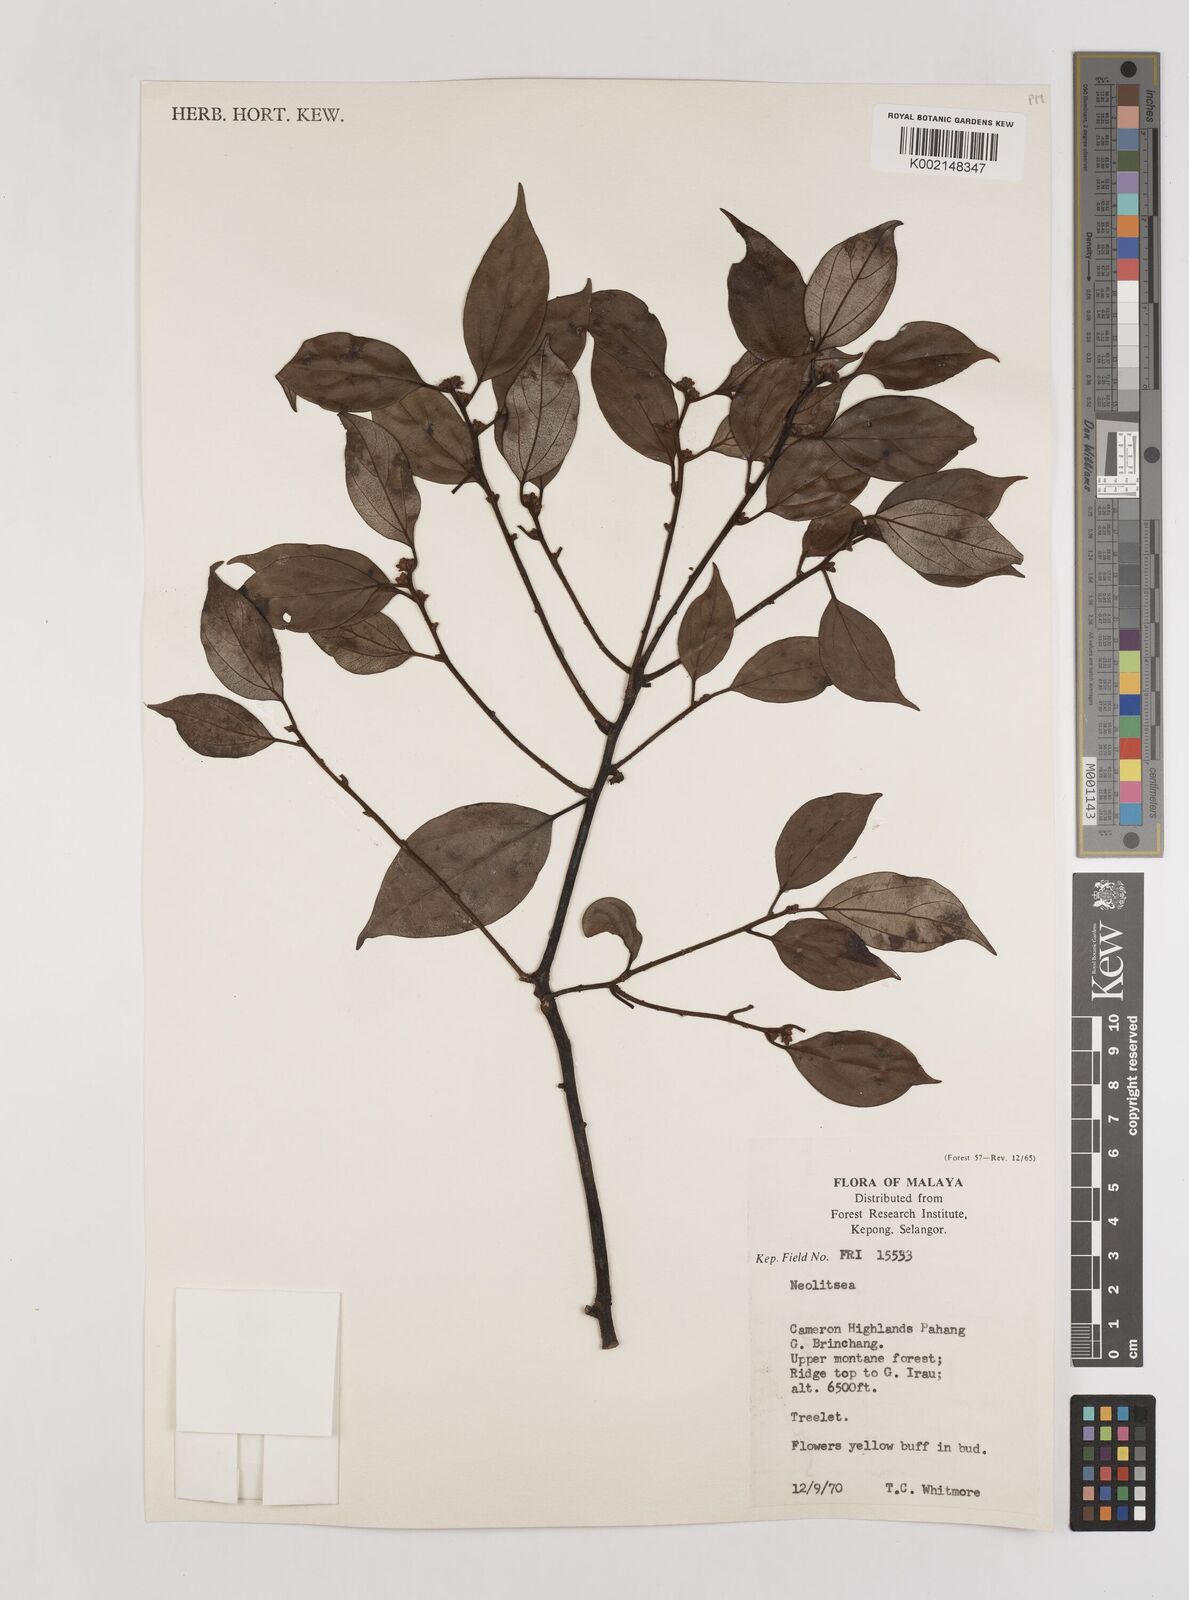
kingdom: Plantae
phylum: Tracheophyta
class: Magnoliopsida
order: Laurales
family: Lauraceae
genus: Neolitsea
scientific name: Neolitsea
